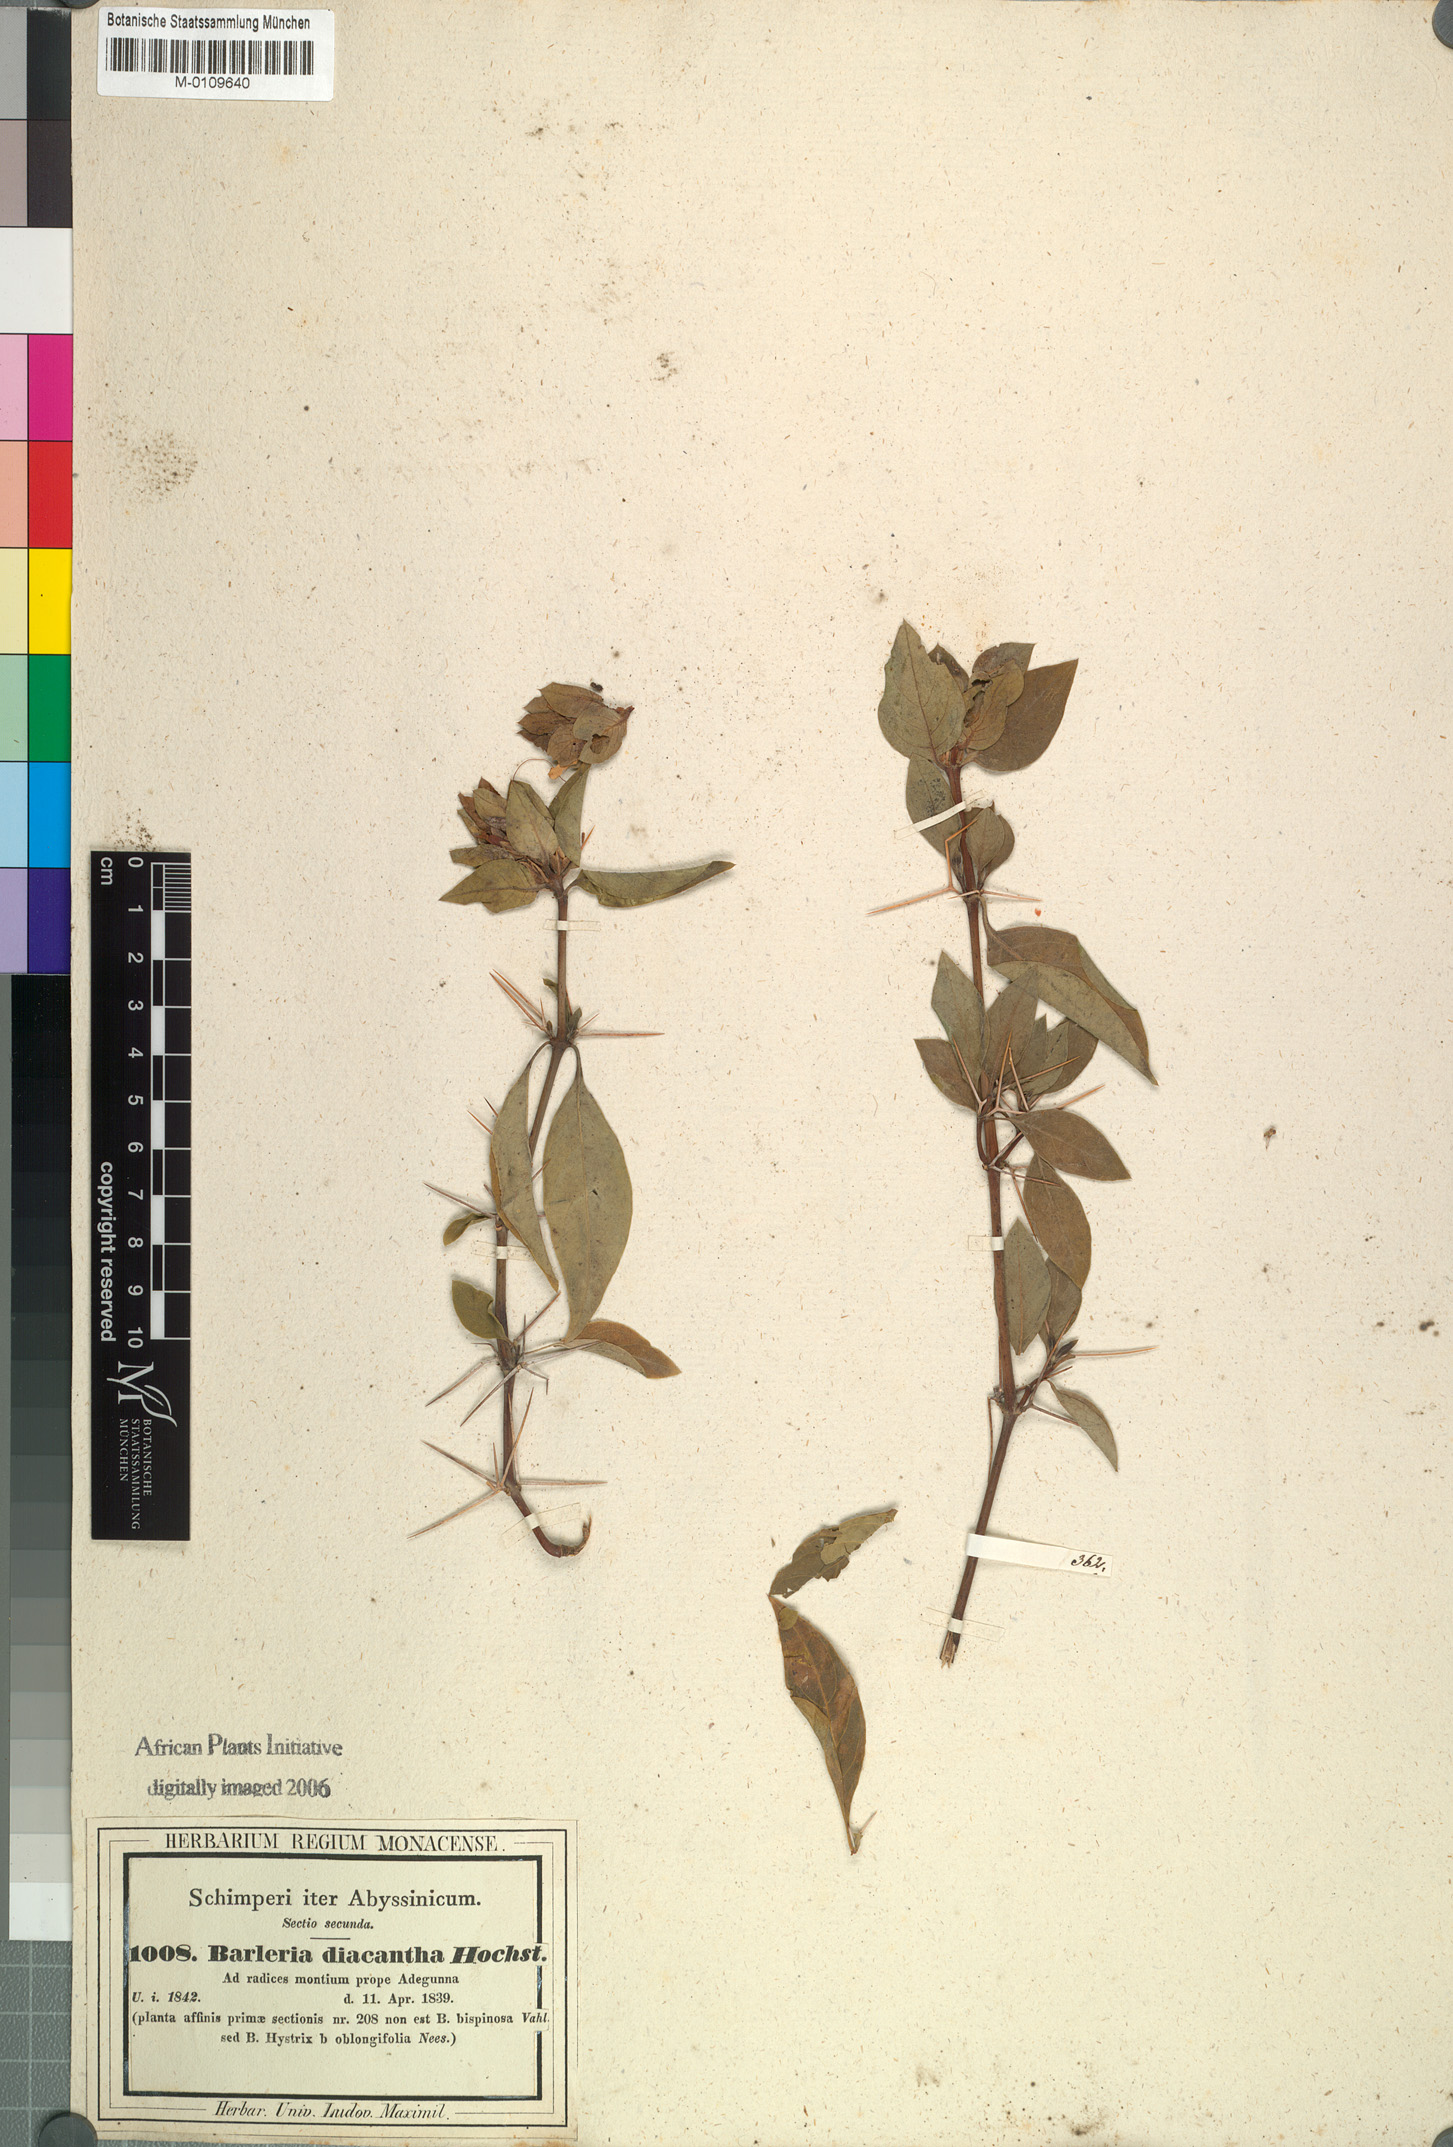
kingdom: Plantae
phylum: Tracheophyta
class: Magnoliopsida
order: Lamiales
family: Acanthaceae
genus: Barleria
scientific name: Barleria trispinosa
